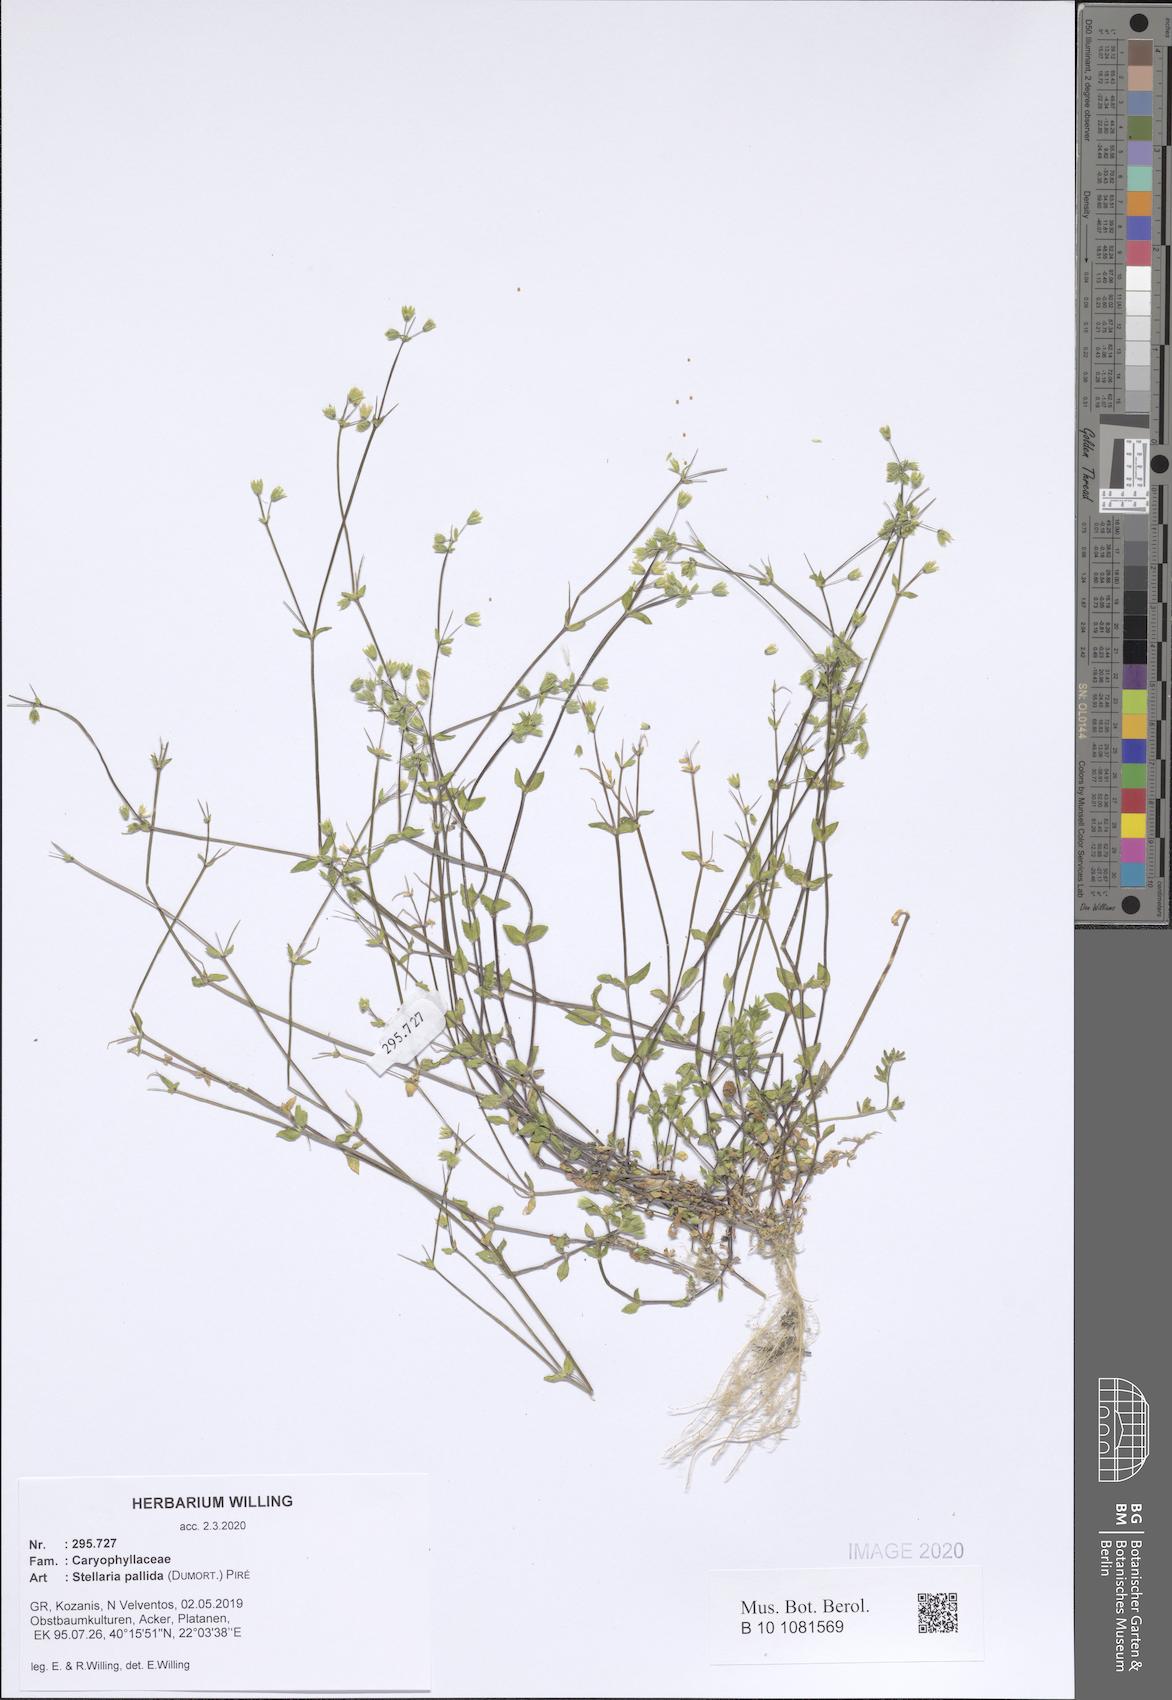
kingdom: Plantae
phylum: Tracheophyta
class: Magnoliopsida
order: Caryophyllales
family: Caryophyllaceae
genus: Stellaria
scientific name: Stellaria apetala
